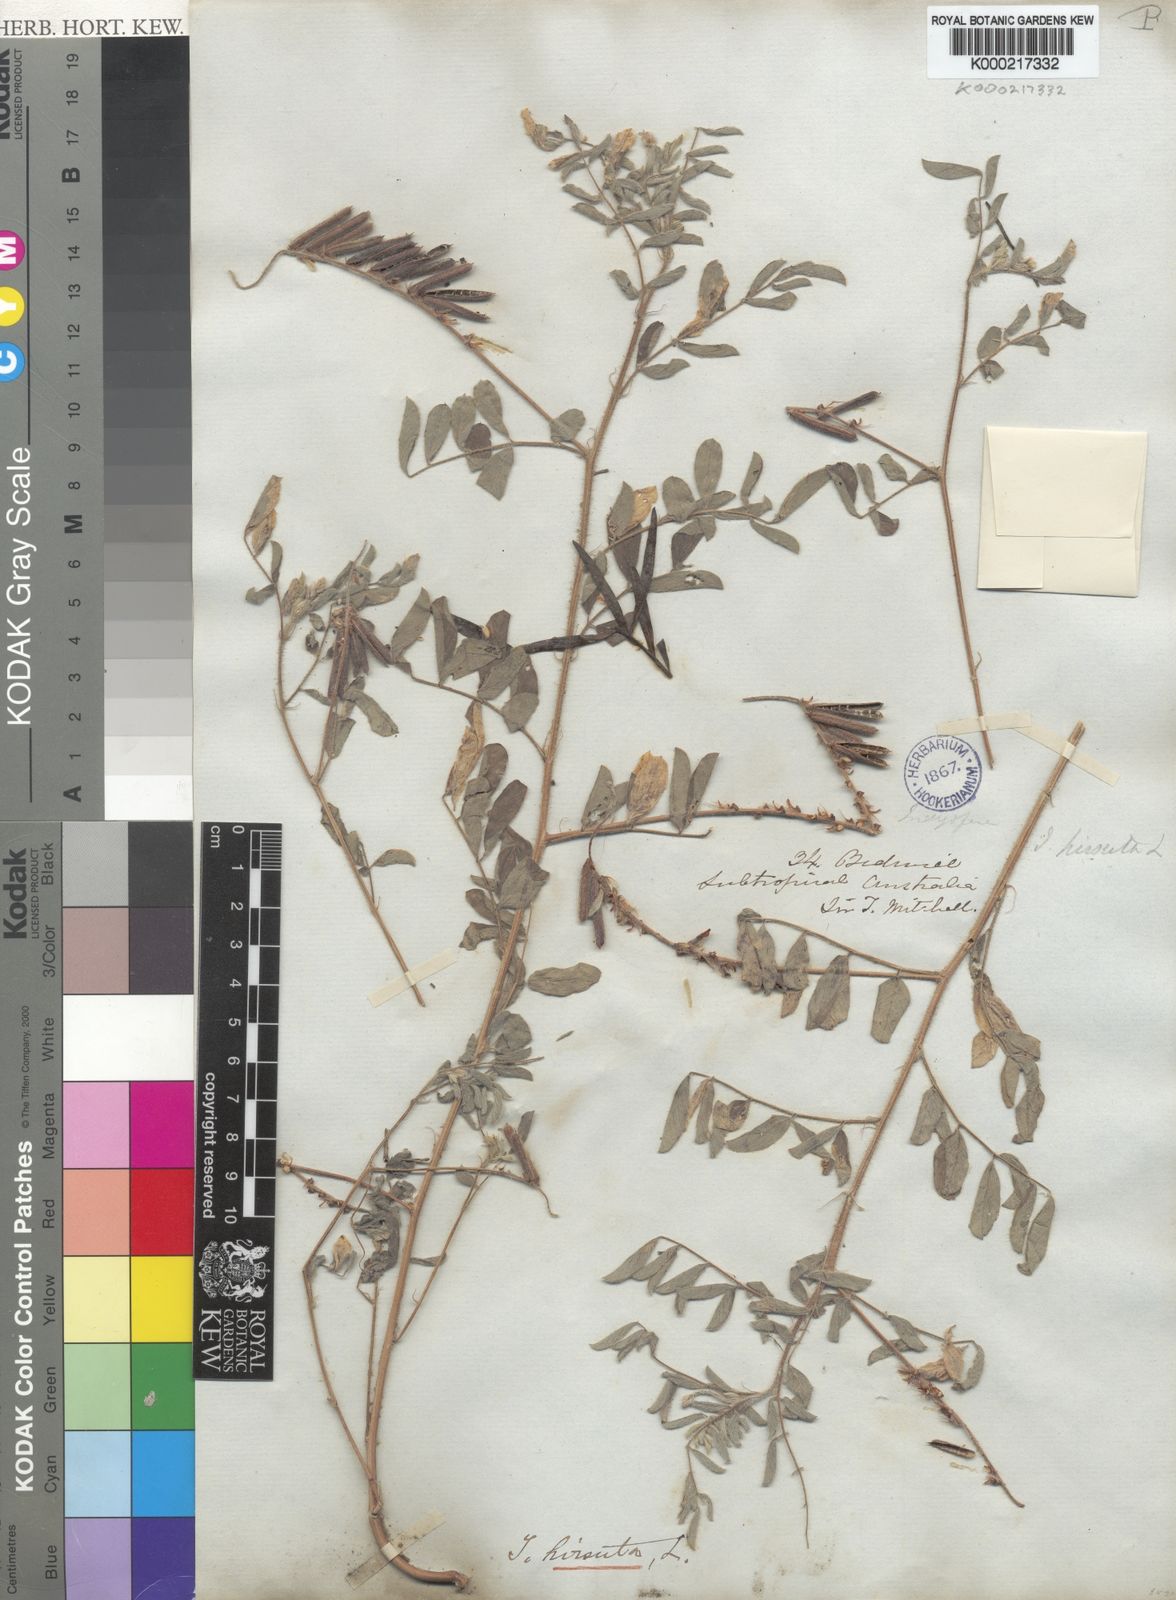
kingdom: Plantae
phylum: Tracheophyta
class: Magnoliopsida
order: Fabales
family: Fabaceae
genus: Indigofera
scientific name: Indigofera hirsuta
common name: Hairy indigo
